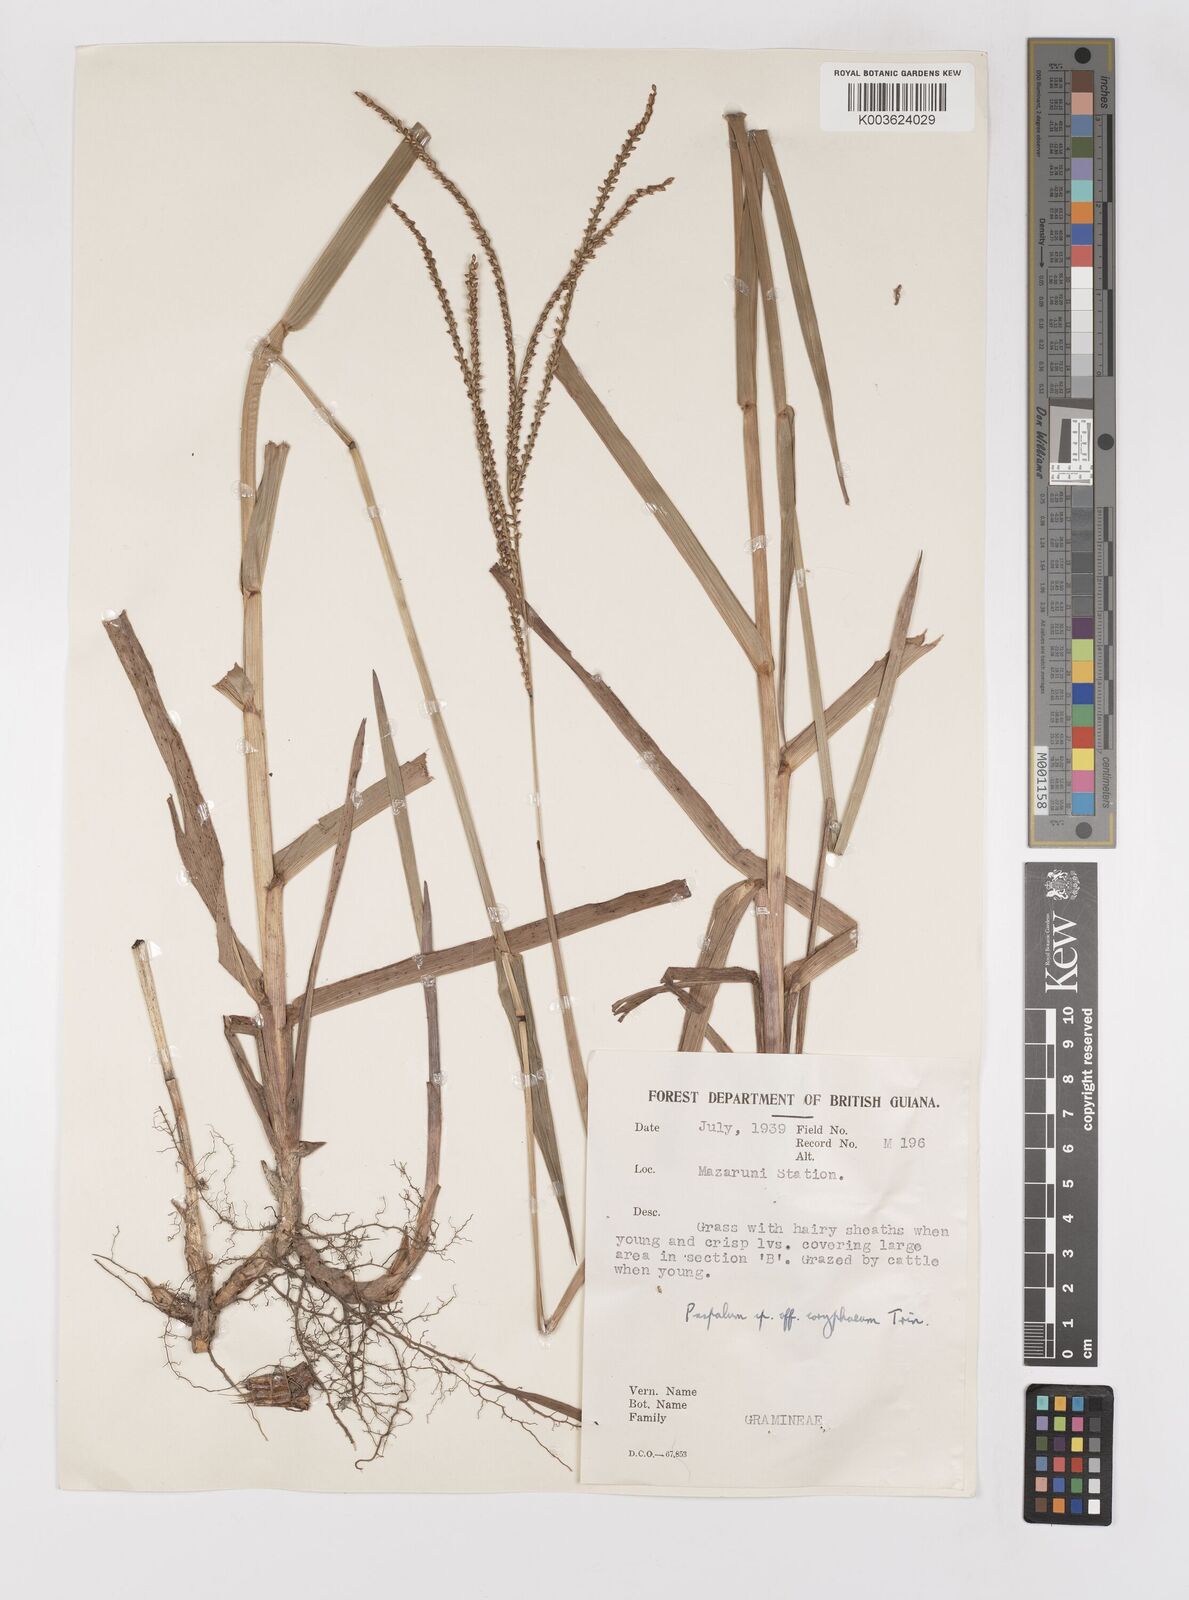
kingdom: Plantae
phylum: Tracheophyta
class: Liliopsida
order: Poales
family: Poaceae
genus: Paspalum
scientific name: Paspalum maritimum
